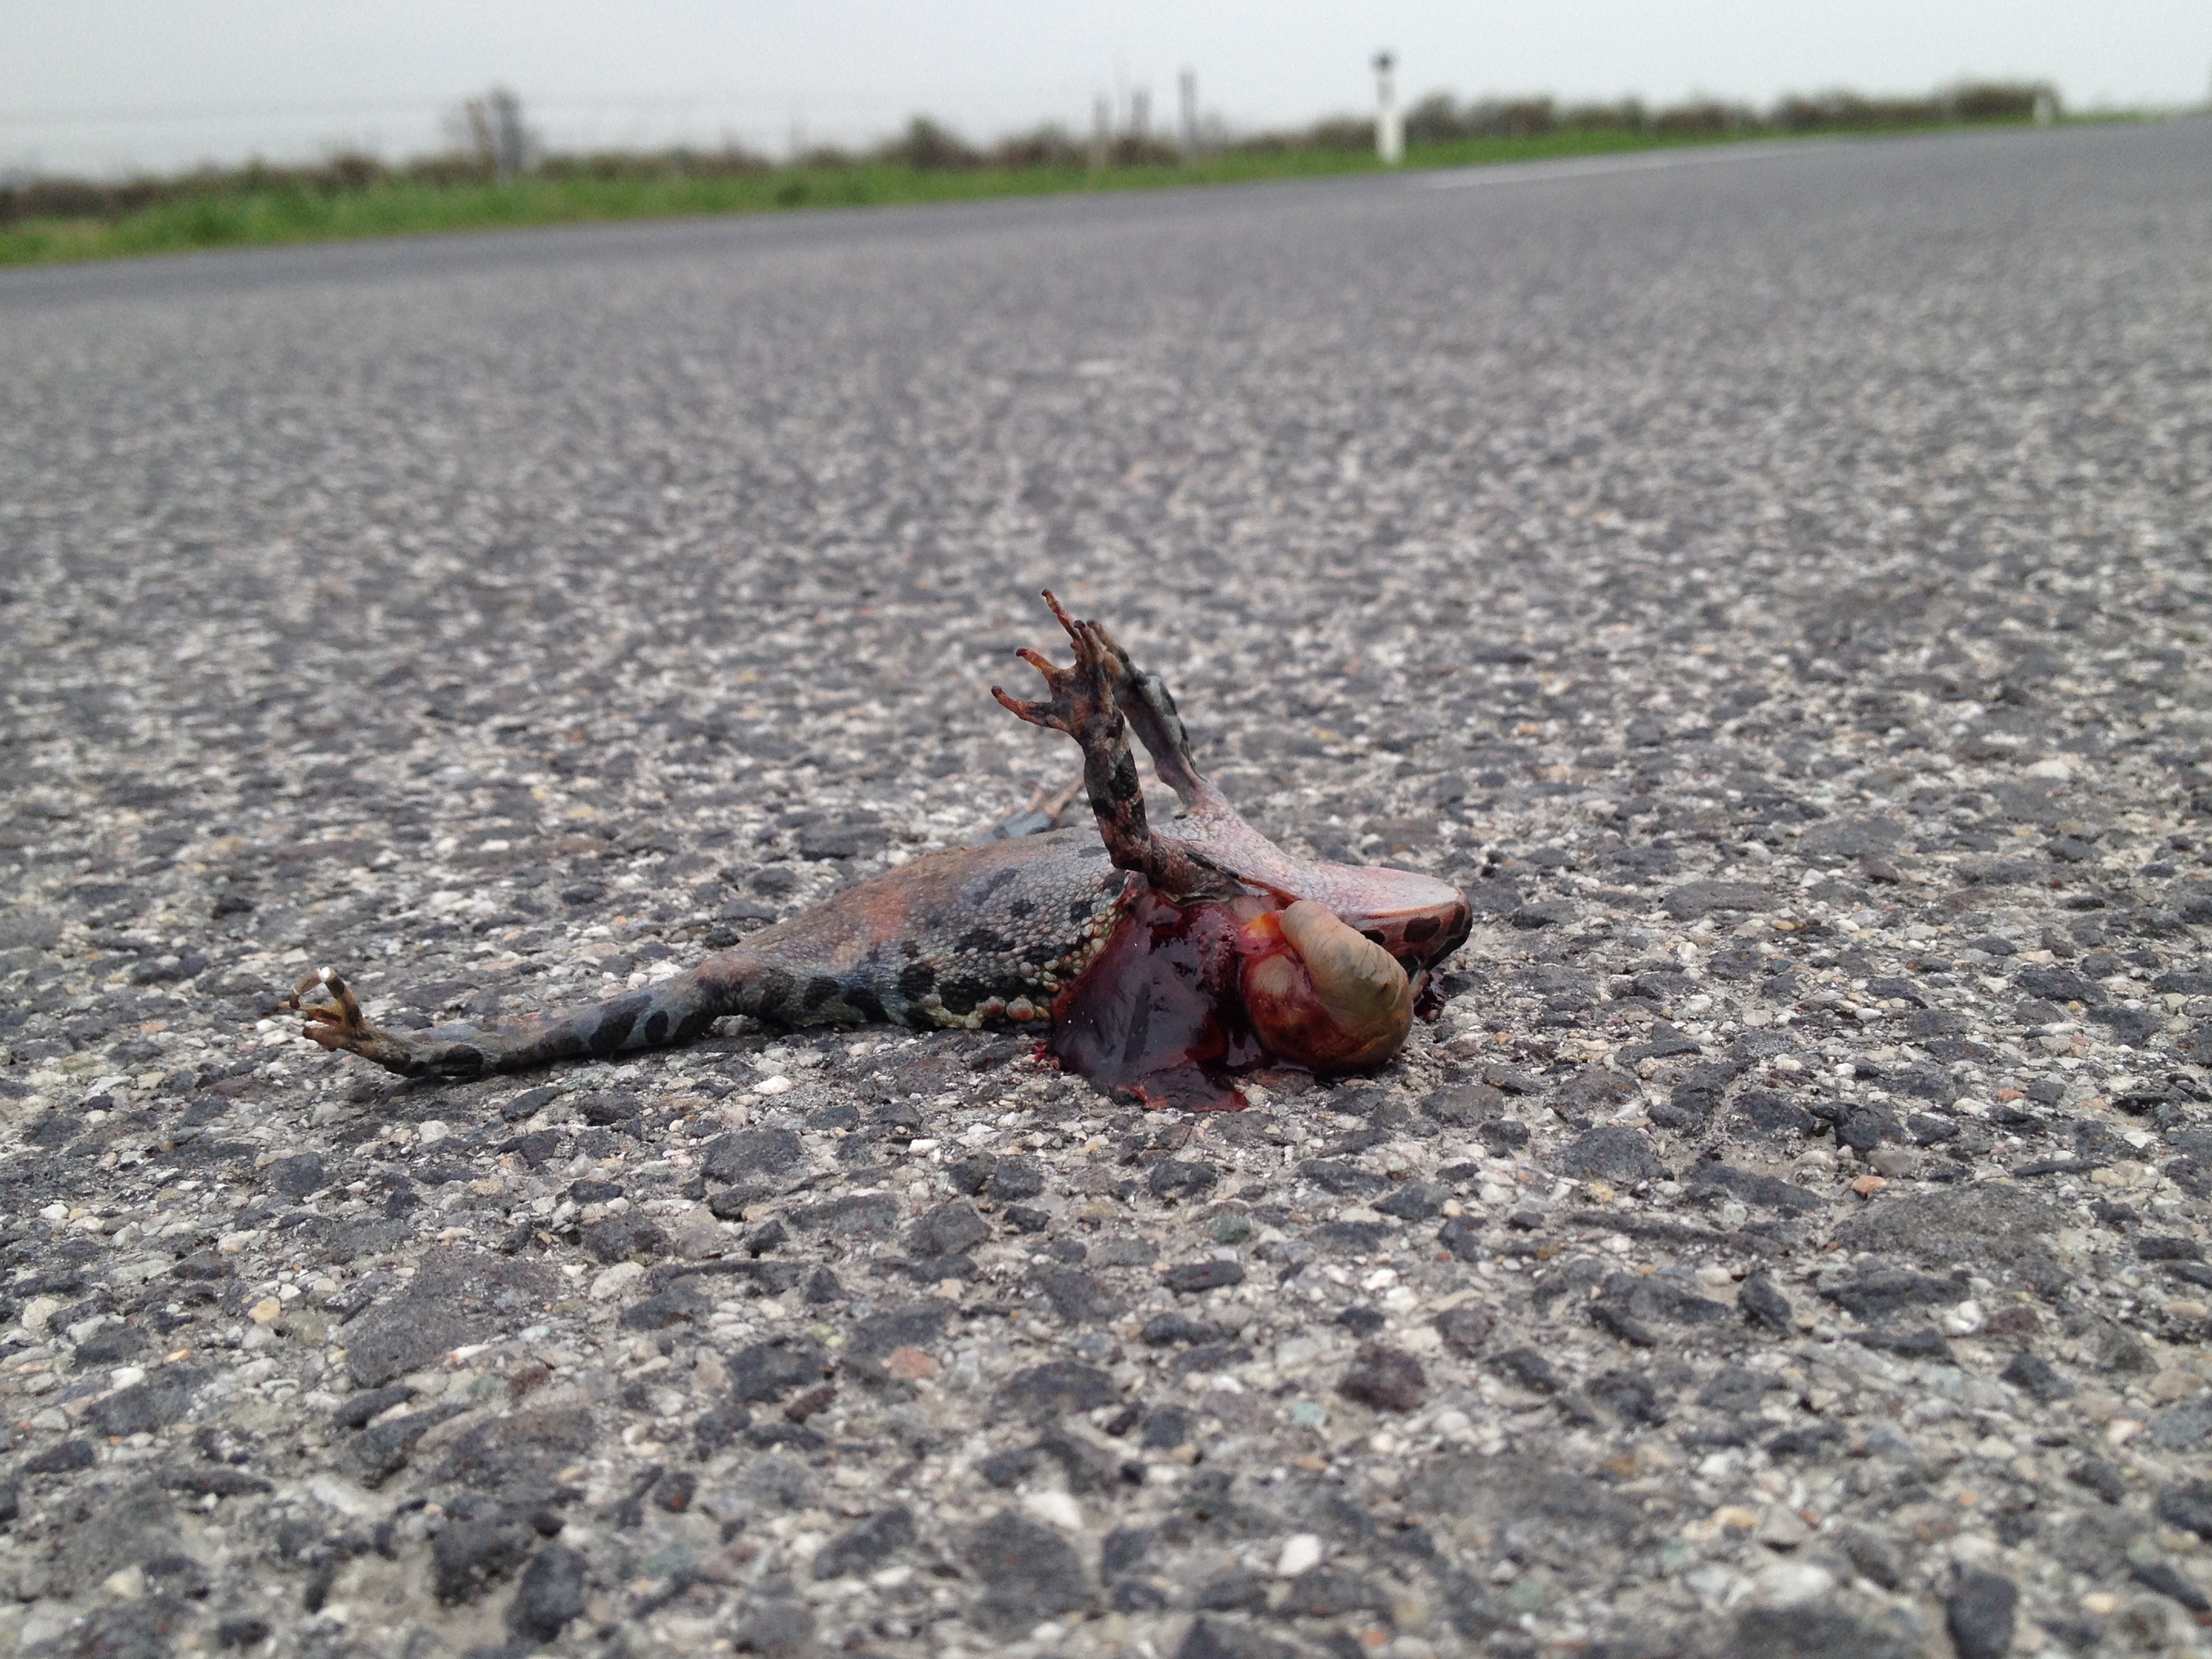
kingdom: Animalia
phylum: Chordata
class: Amphibia
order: Anura
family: Bufonidae
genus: Bufotes
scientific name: Bufotes viridis
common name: European green toad
